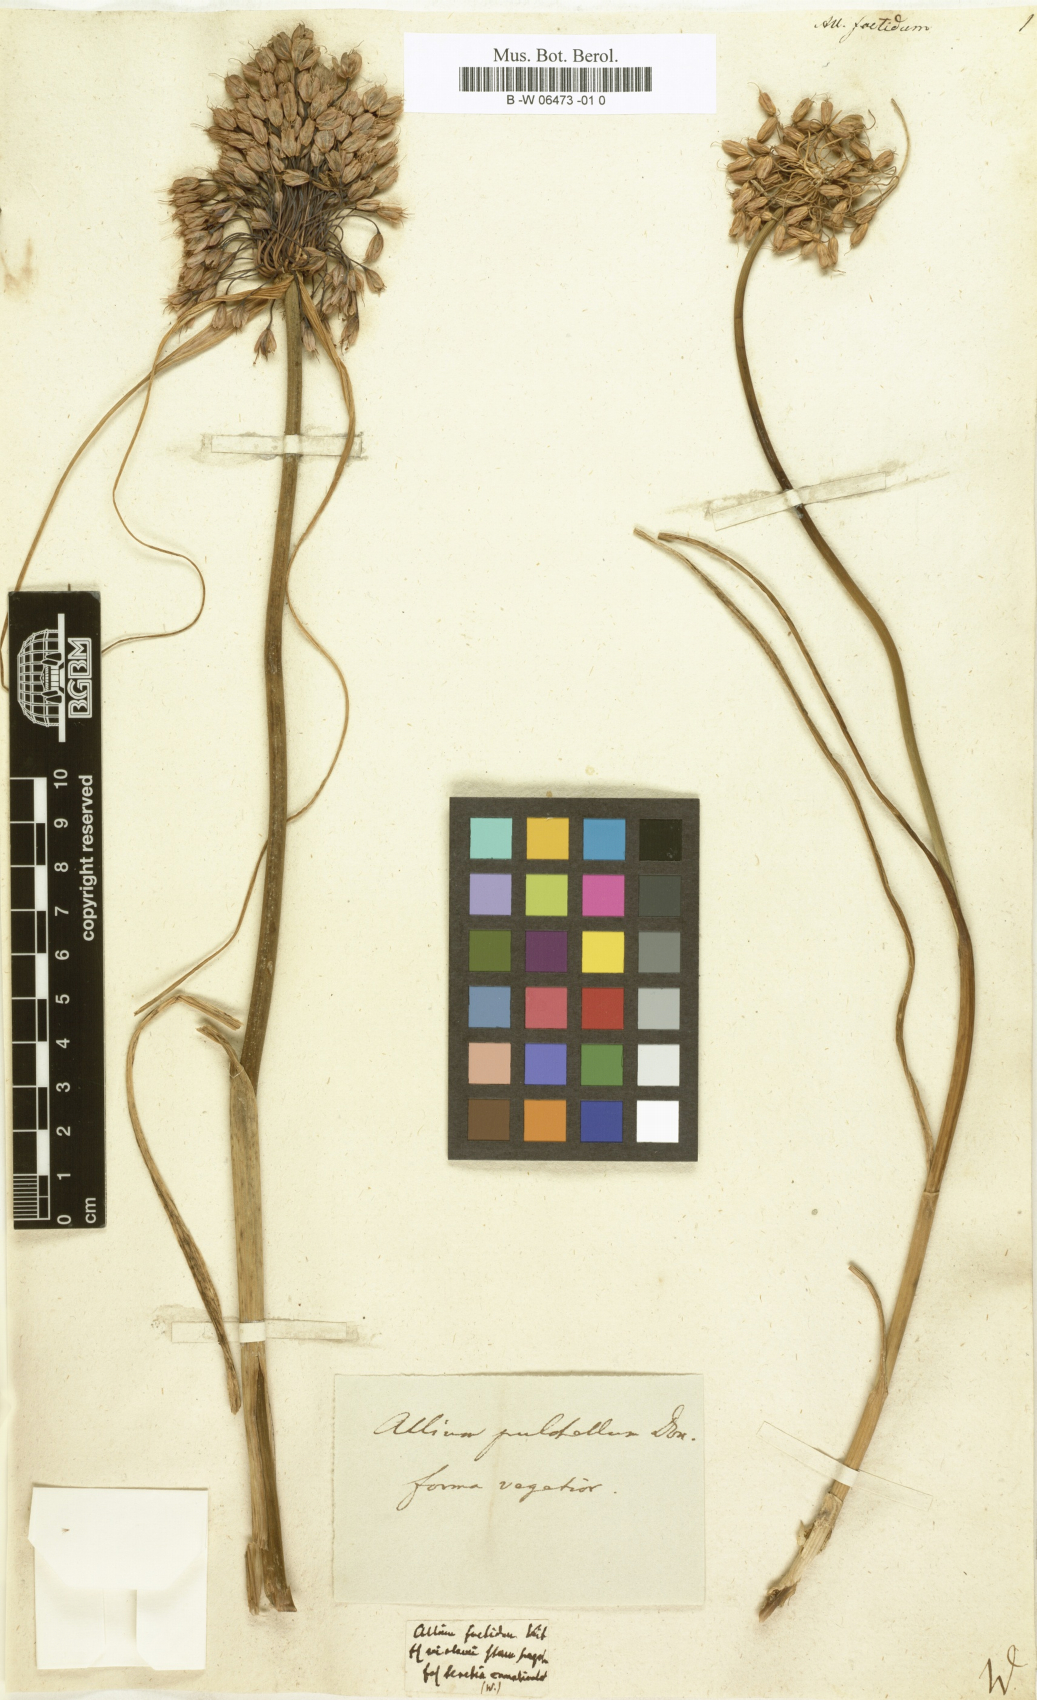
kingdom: Plantae
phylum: Tracheophyta
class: Liliopsida
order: Asparagales
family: Amaryllidaceae
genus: Allium
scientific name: Allium carinatum
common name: Keeled garlic
